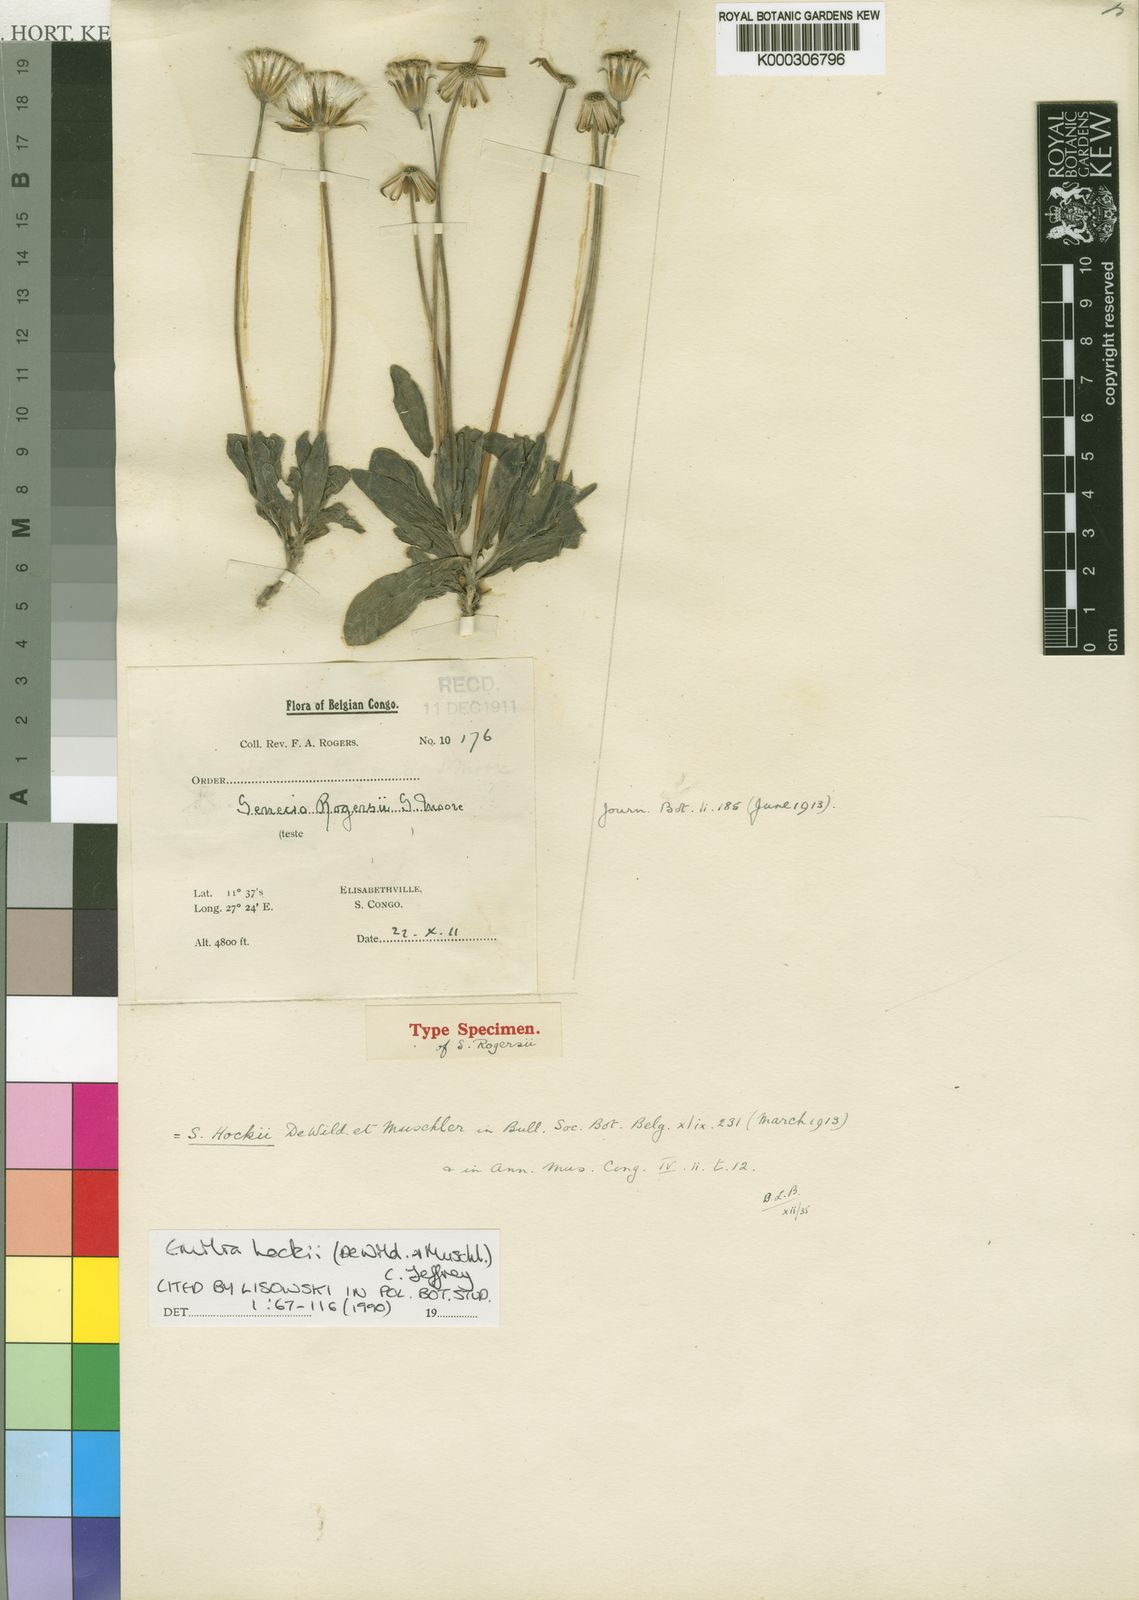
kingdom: Plantae
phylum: Tracheophyta
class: Magnoliopsida
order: Asterales
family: Asteraceae
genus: Emilia
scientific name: Emilia hockii
